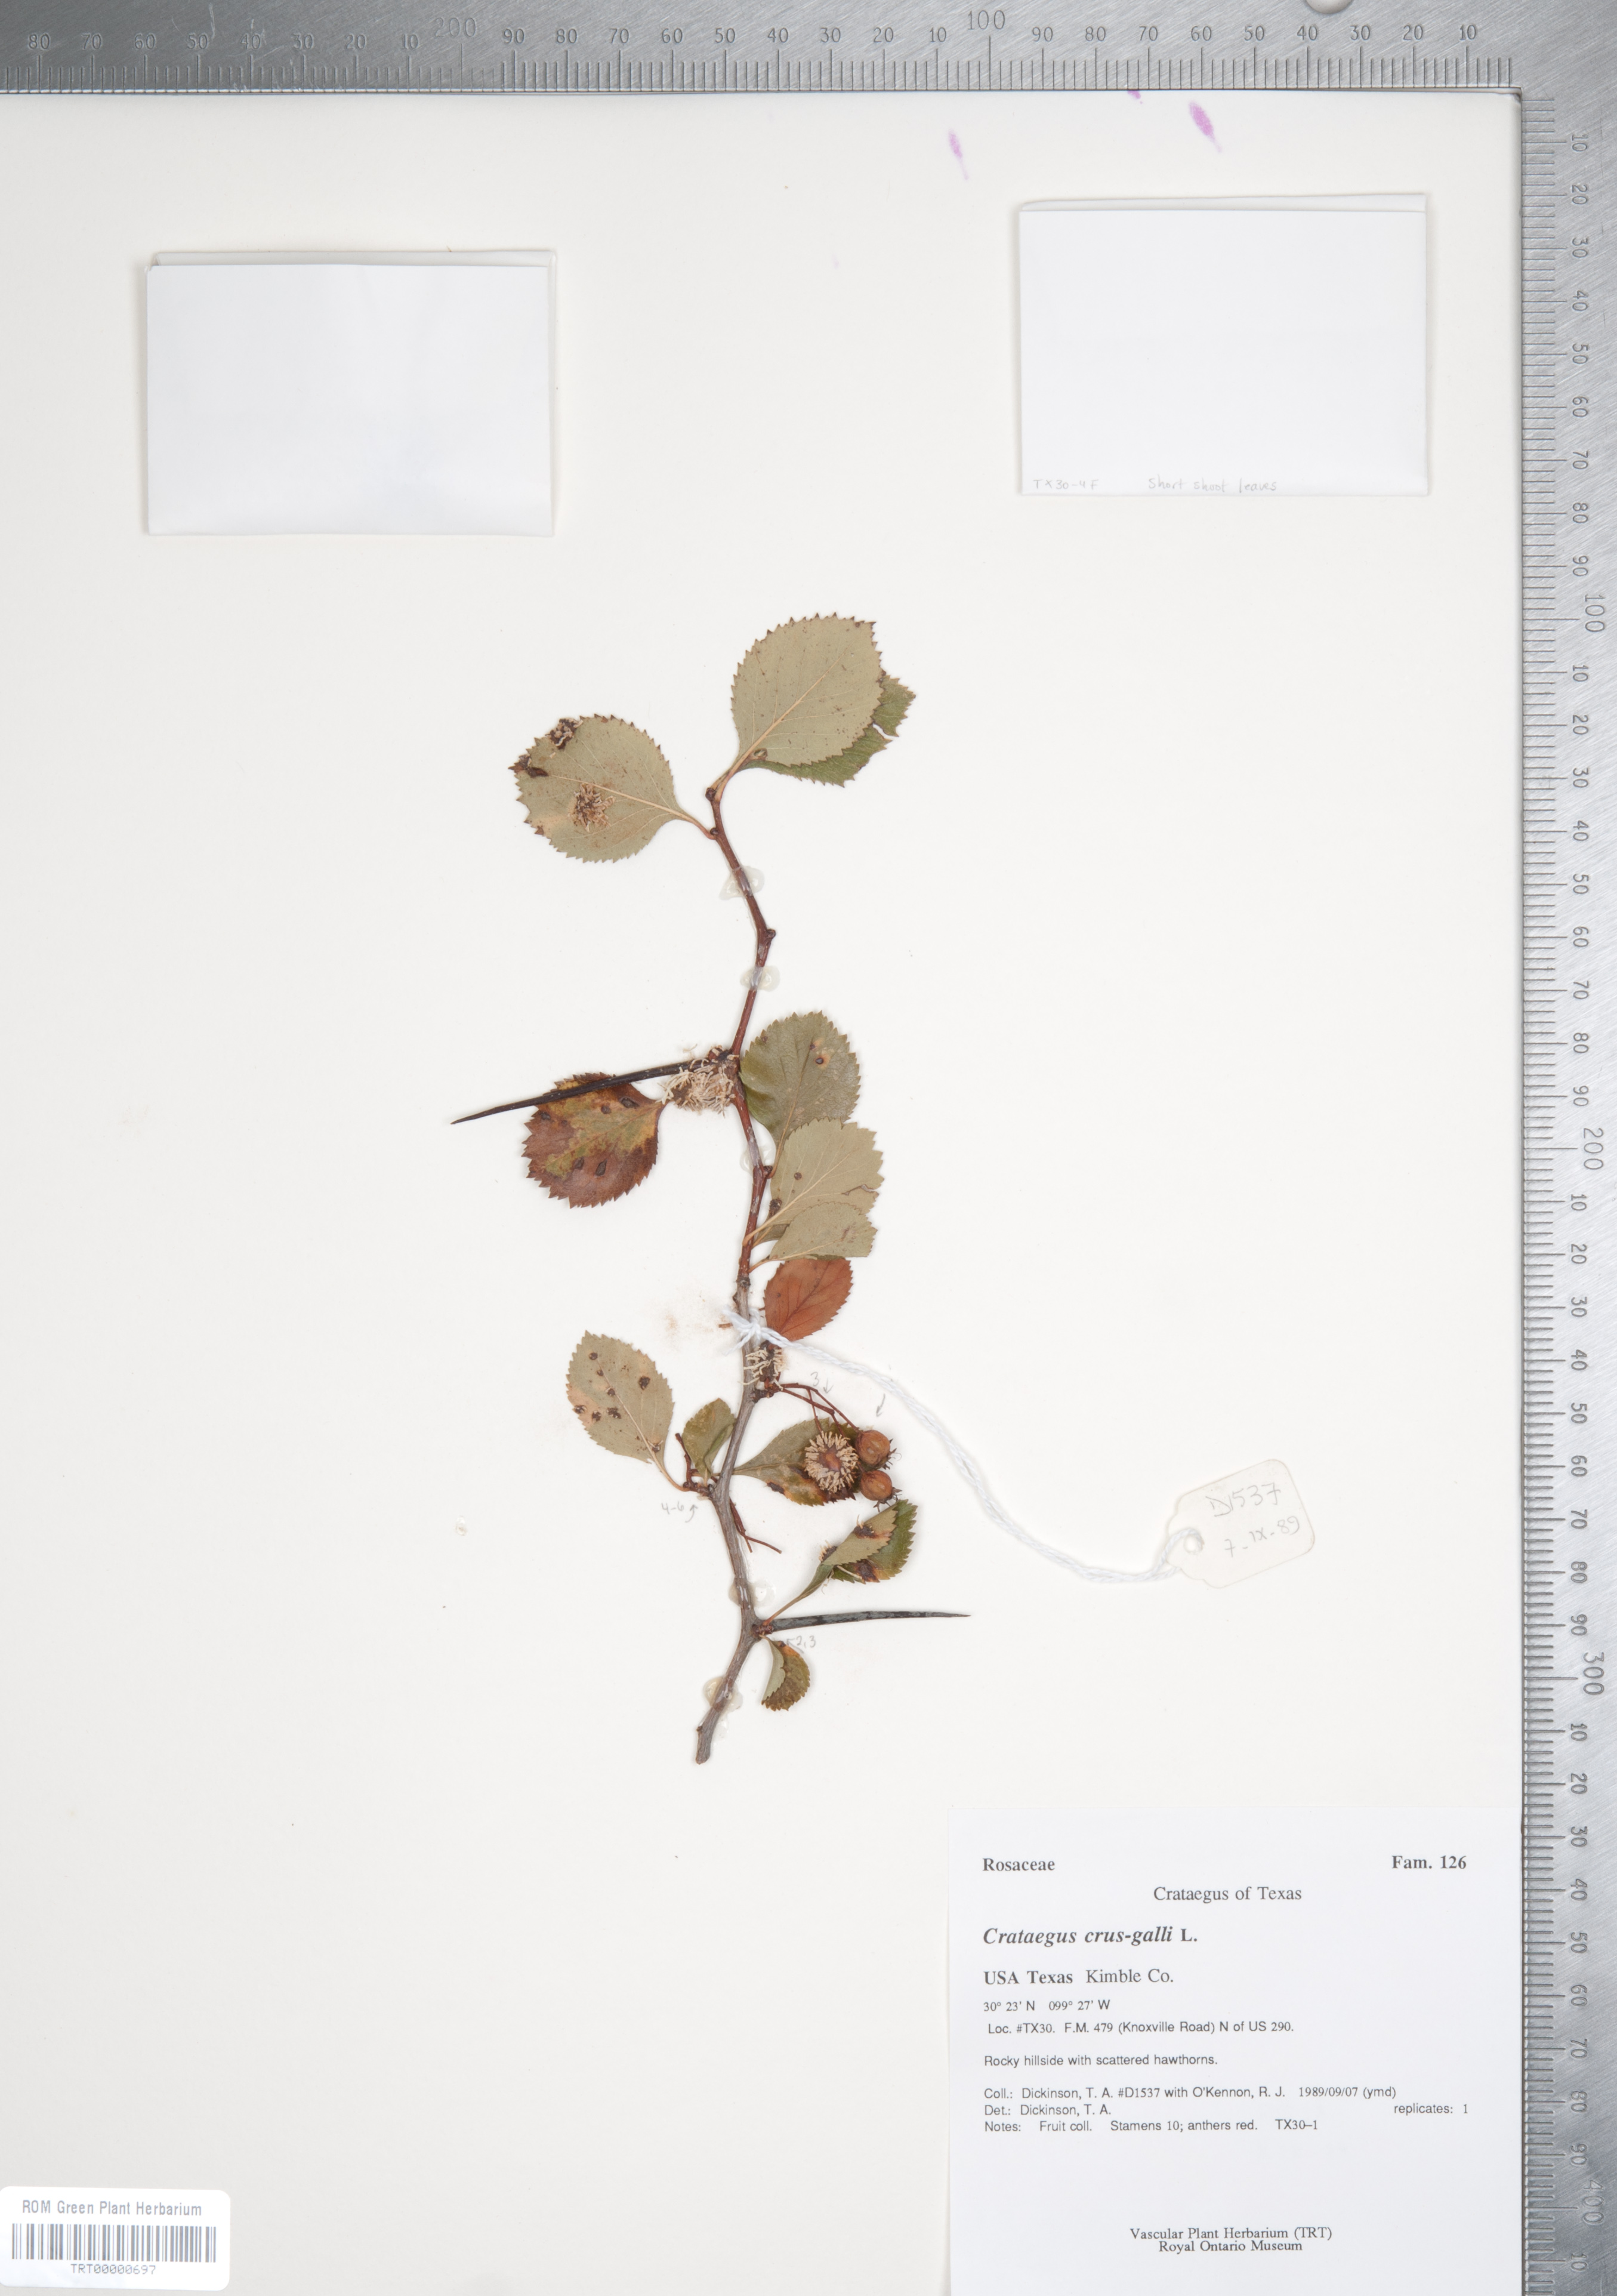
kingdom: Plantae
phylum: Tracheophyta
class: Magnoliopsida
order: Rosales
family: Rosaceae
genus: Crataegus
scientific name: Crataegus crus-galli
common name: Cockspurthorn
